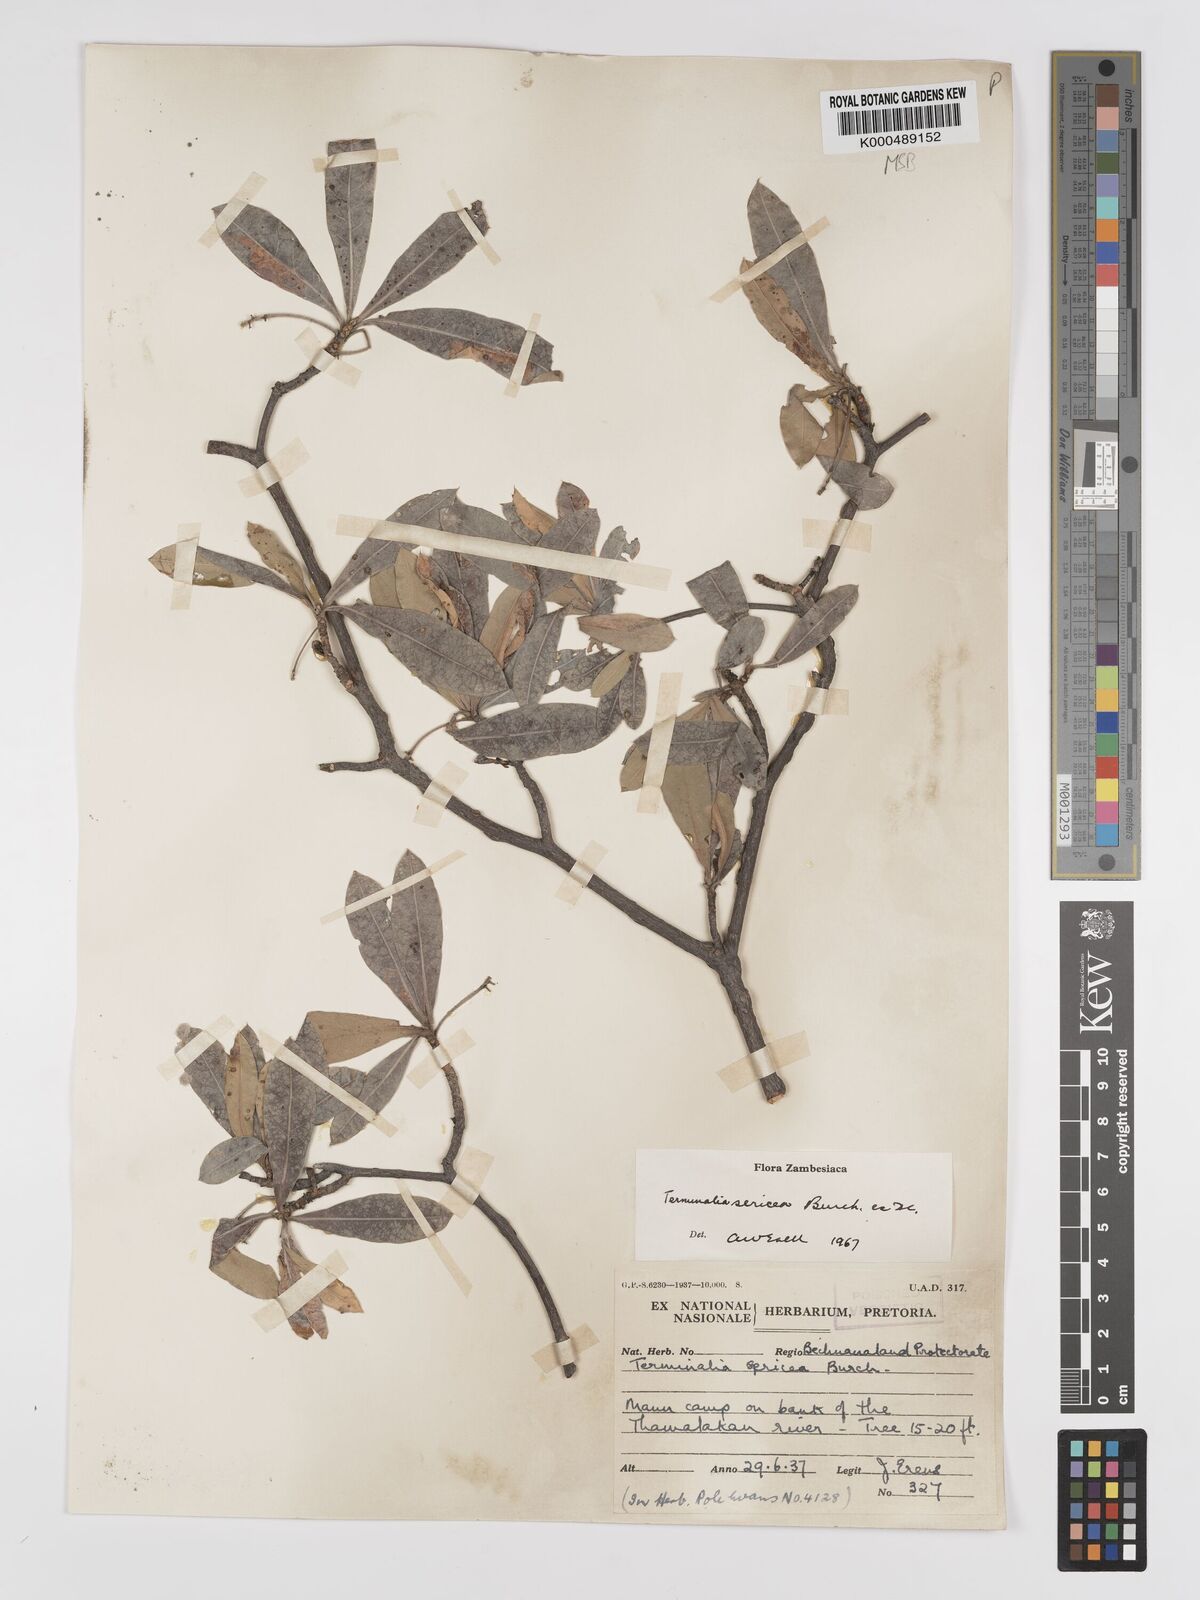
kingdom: Plantae
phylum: Tracheophyta
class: Magnoliopsida
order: Myrtales
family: Combretaceae
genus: Terminalia
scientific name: Terminalia sericea
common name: Clusterleaf
